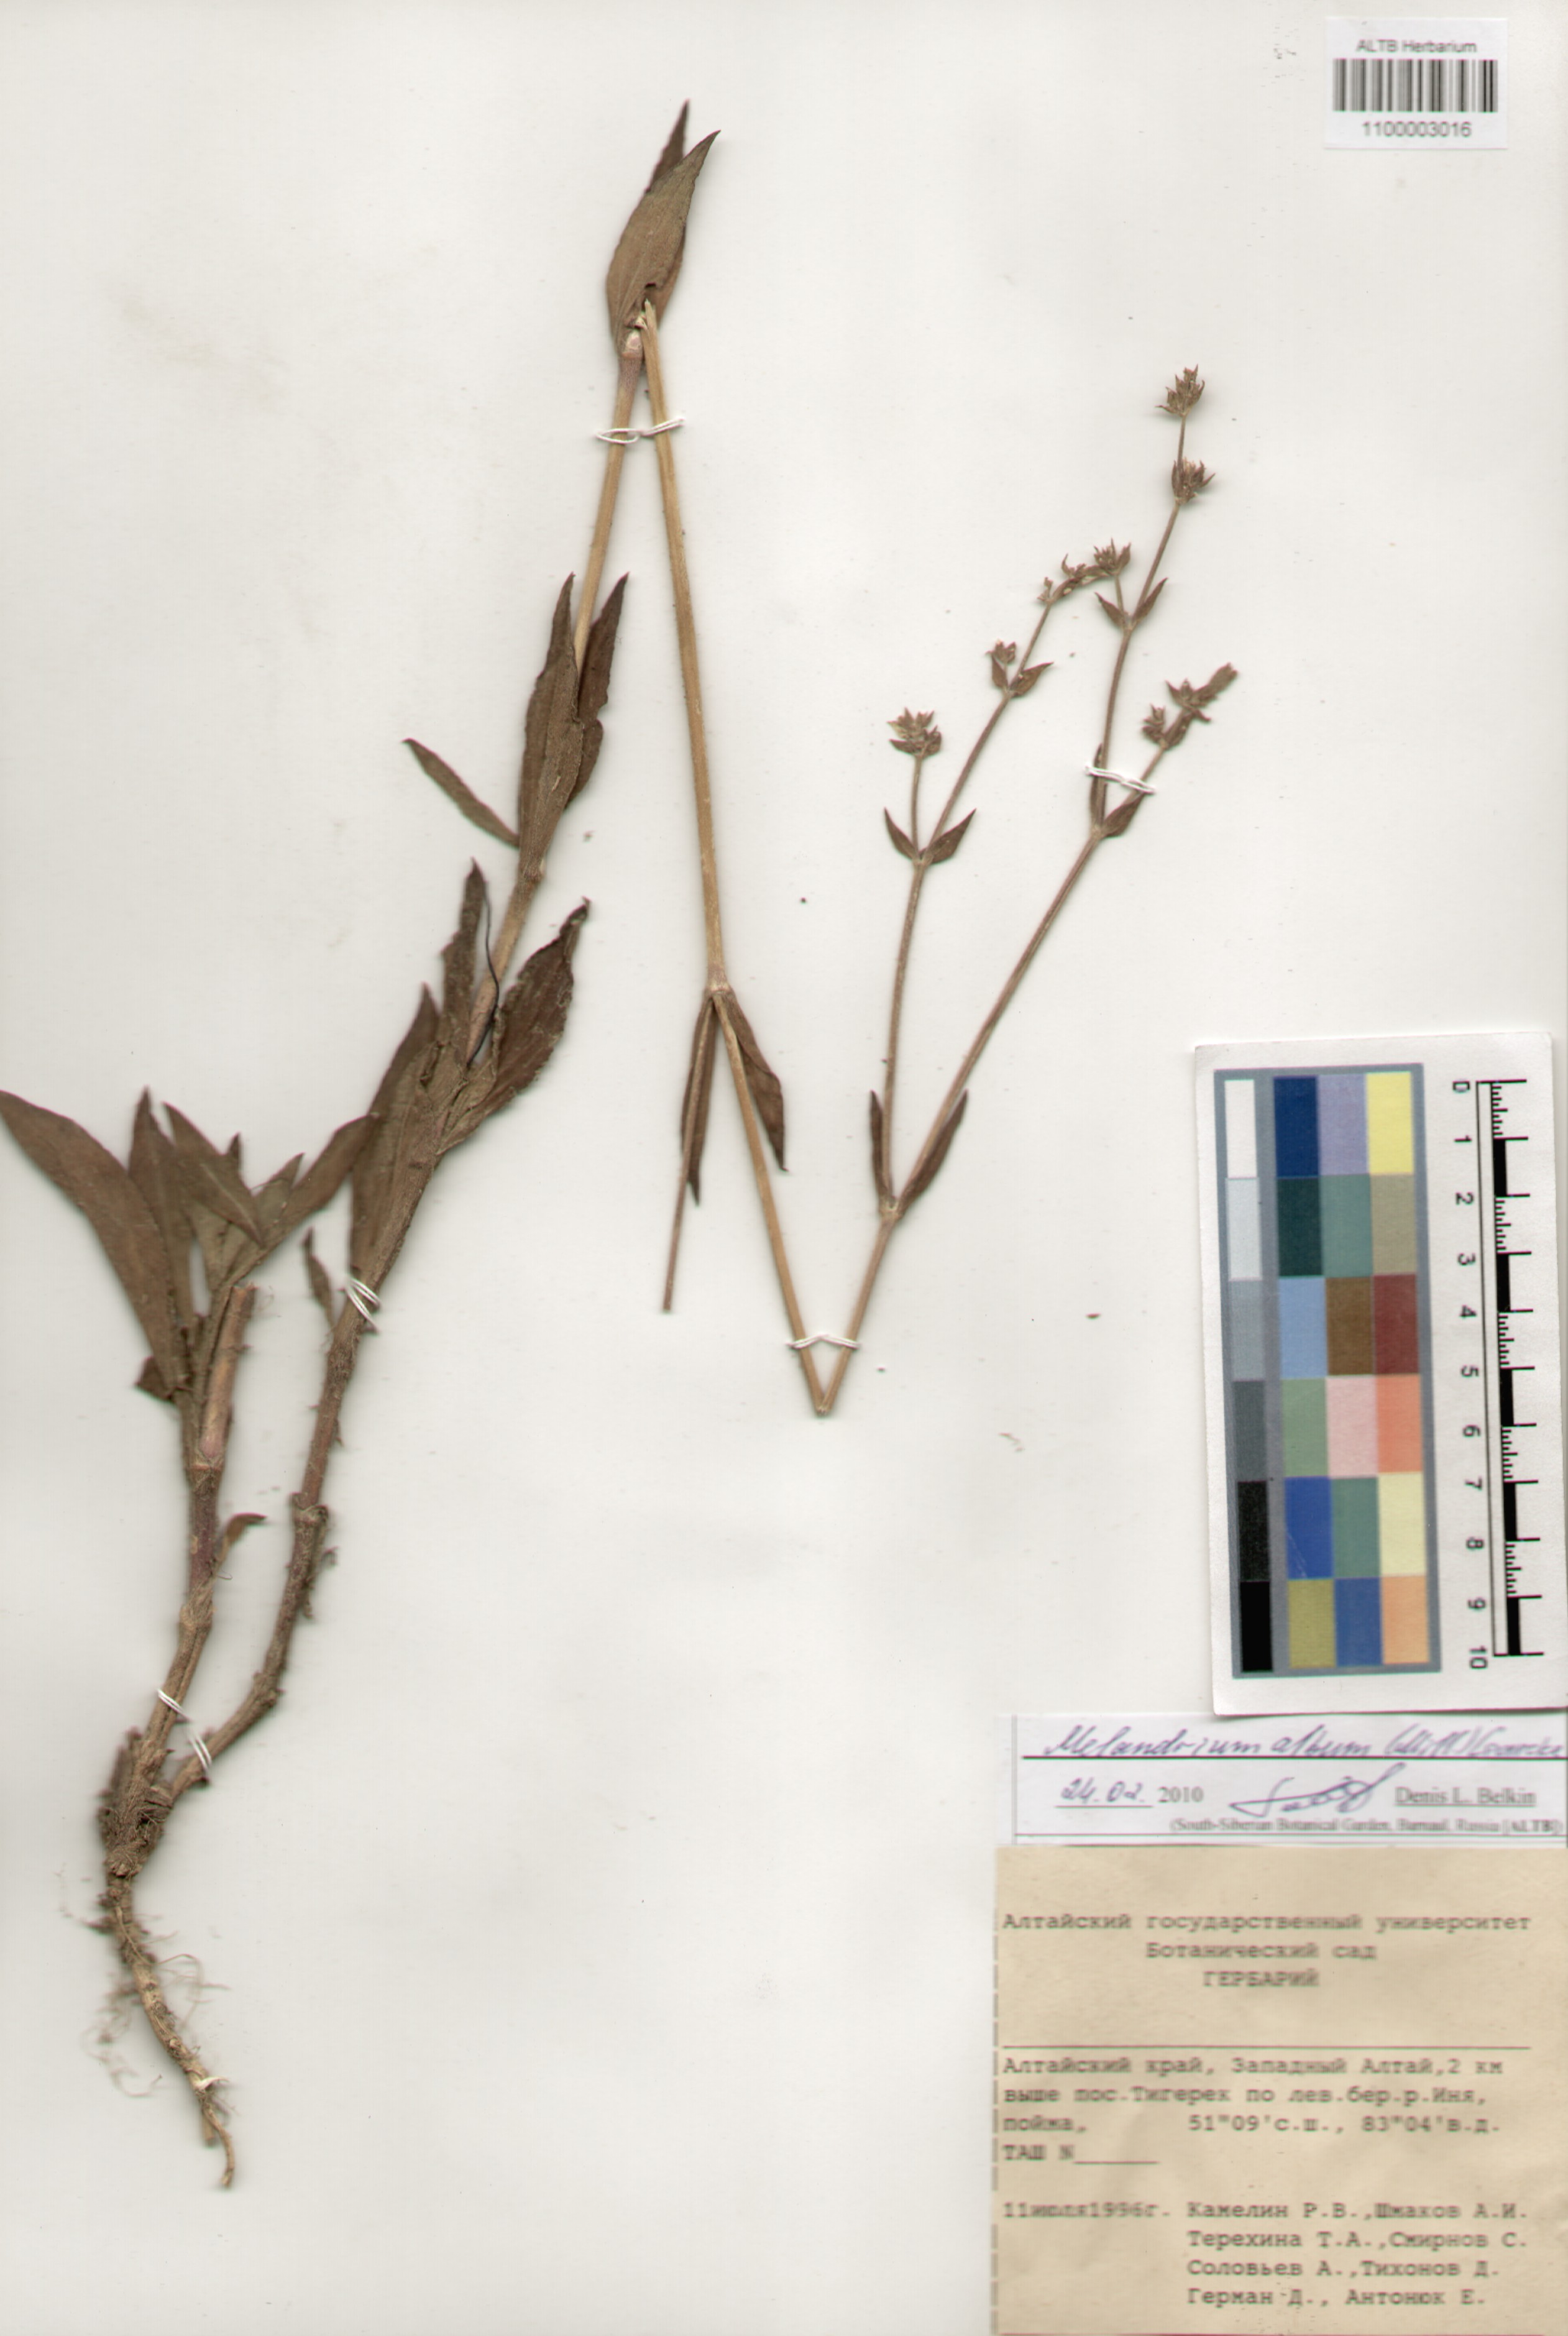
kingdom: Plantae
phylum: Tracheophyta
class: Magnoliopsida
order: Caryophyllales
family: Caryophyllaceae
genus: Silene
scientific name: Silene latifolia
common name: White campion
